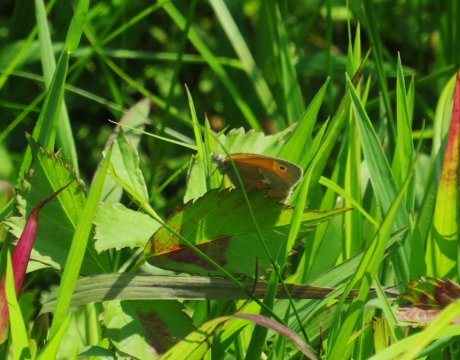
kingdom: Animalia
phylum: Arthropoda
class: Insecta
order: Lepidoptera
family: Nymphalidae
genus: Coenonympha
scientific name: Coenonympha tullia
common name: Large Heath
